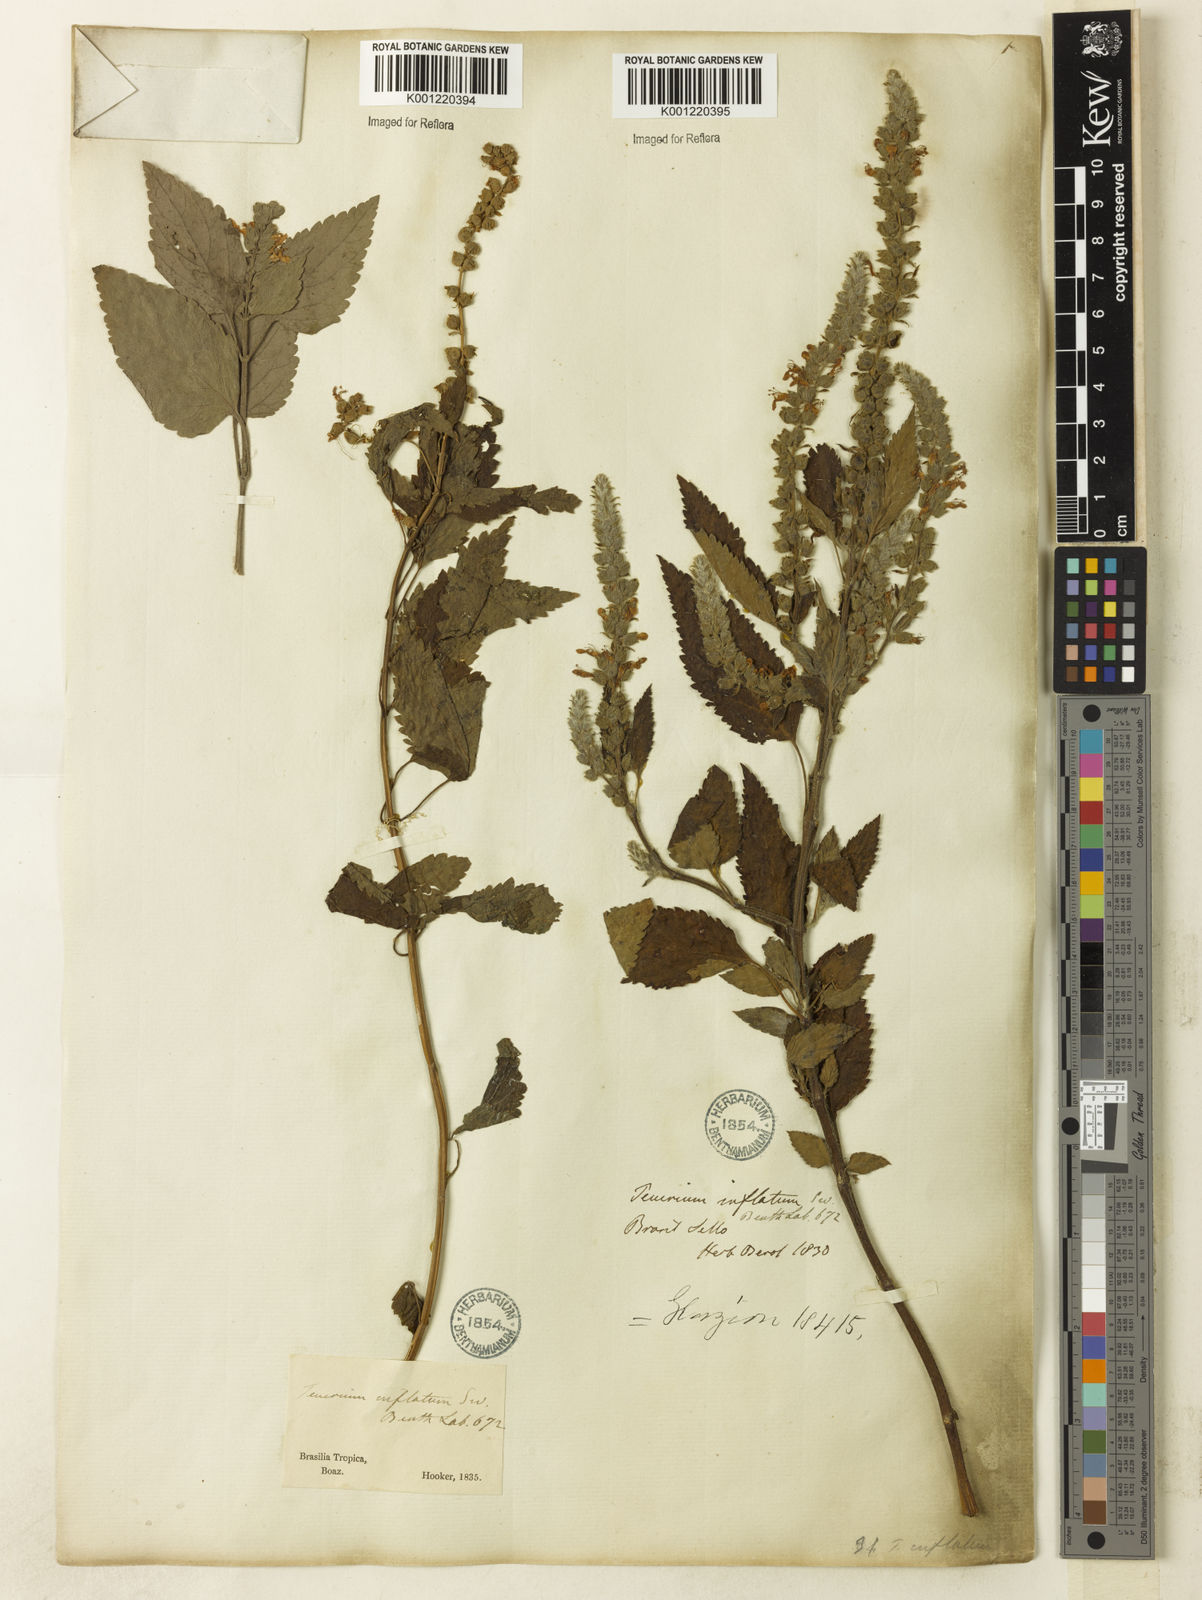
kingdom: Plantae
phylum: Tracheophyta
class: Magnoliopsida
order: Lamiales
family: Lamiaceae
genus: Teucrium
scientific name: Teucrium vesicarium
